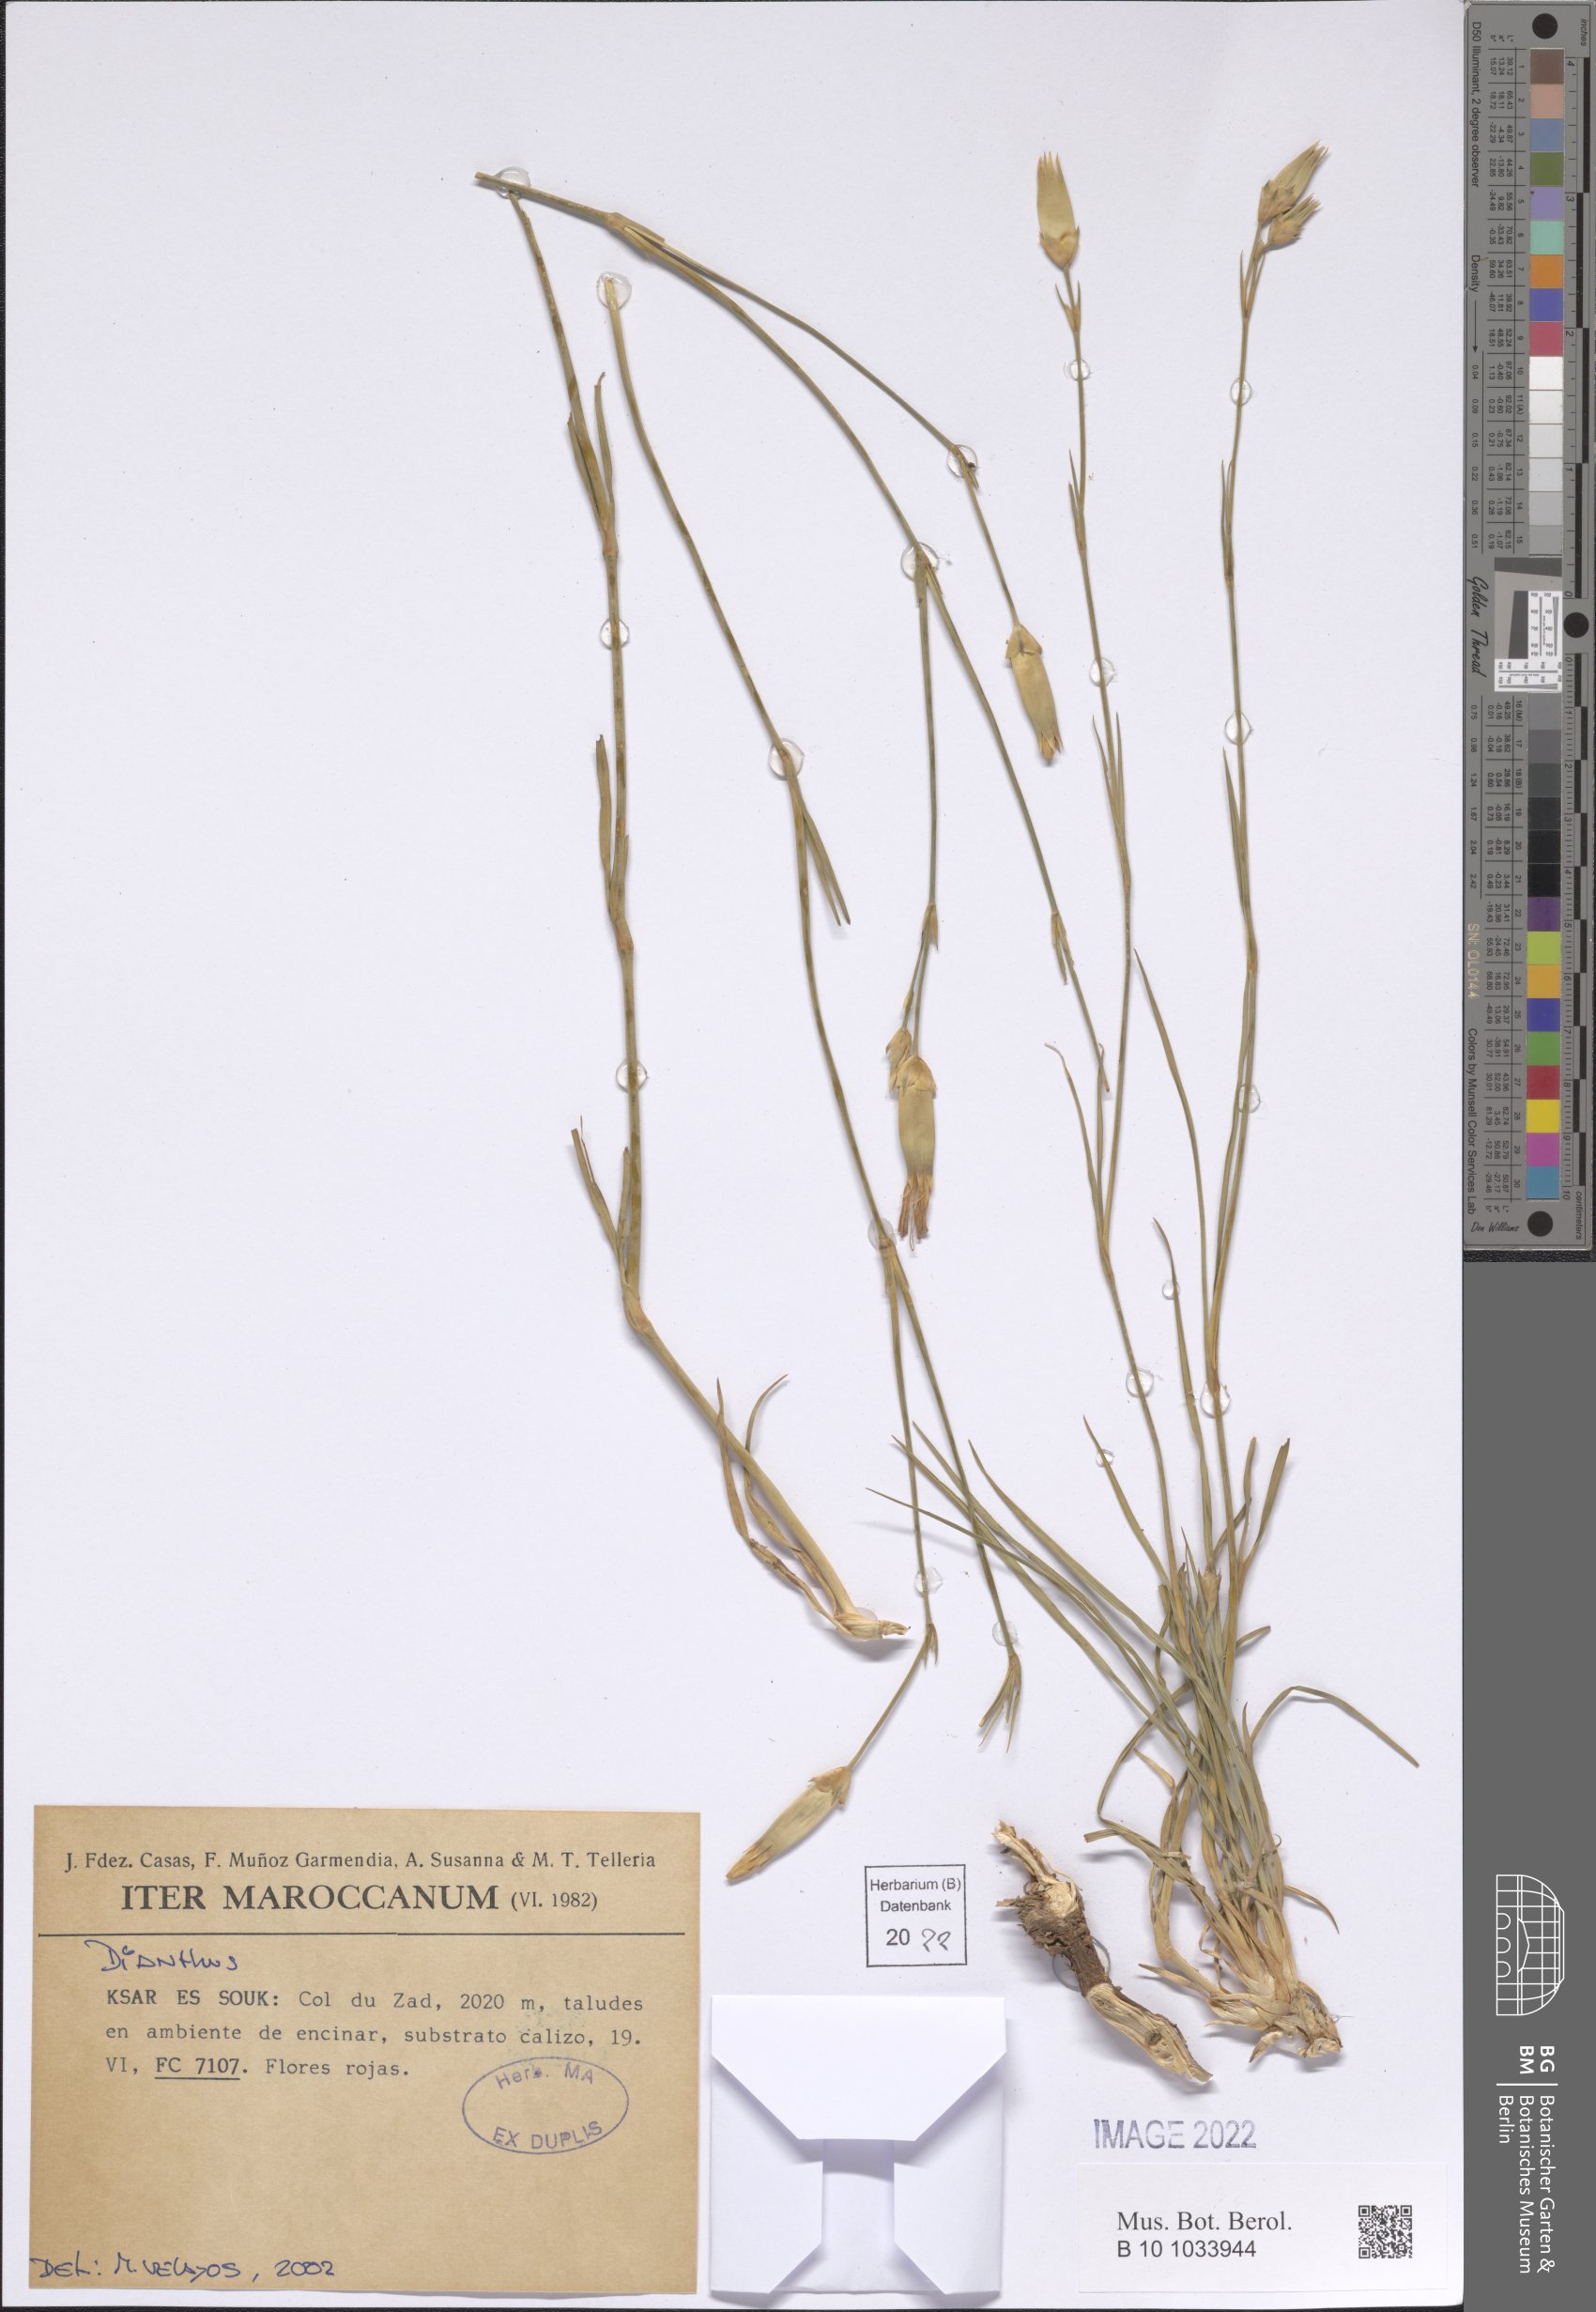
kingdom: Plantae
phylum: Tracheophyta
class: Magnoliopsida
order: Caryophyllales
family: Caryophyllaceae
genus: Dianthus
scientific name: Dianthus
